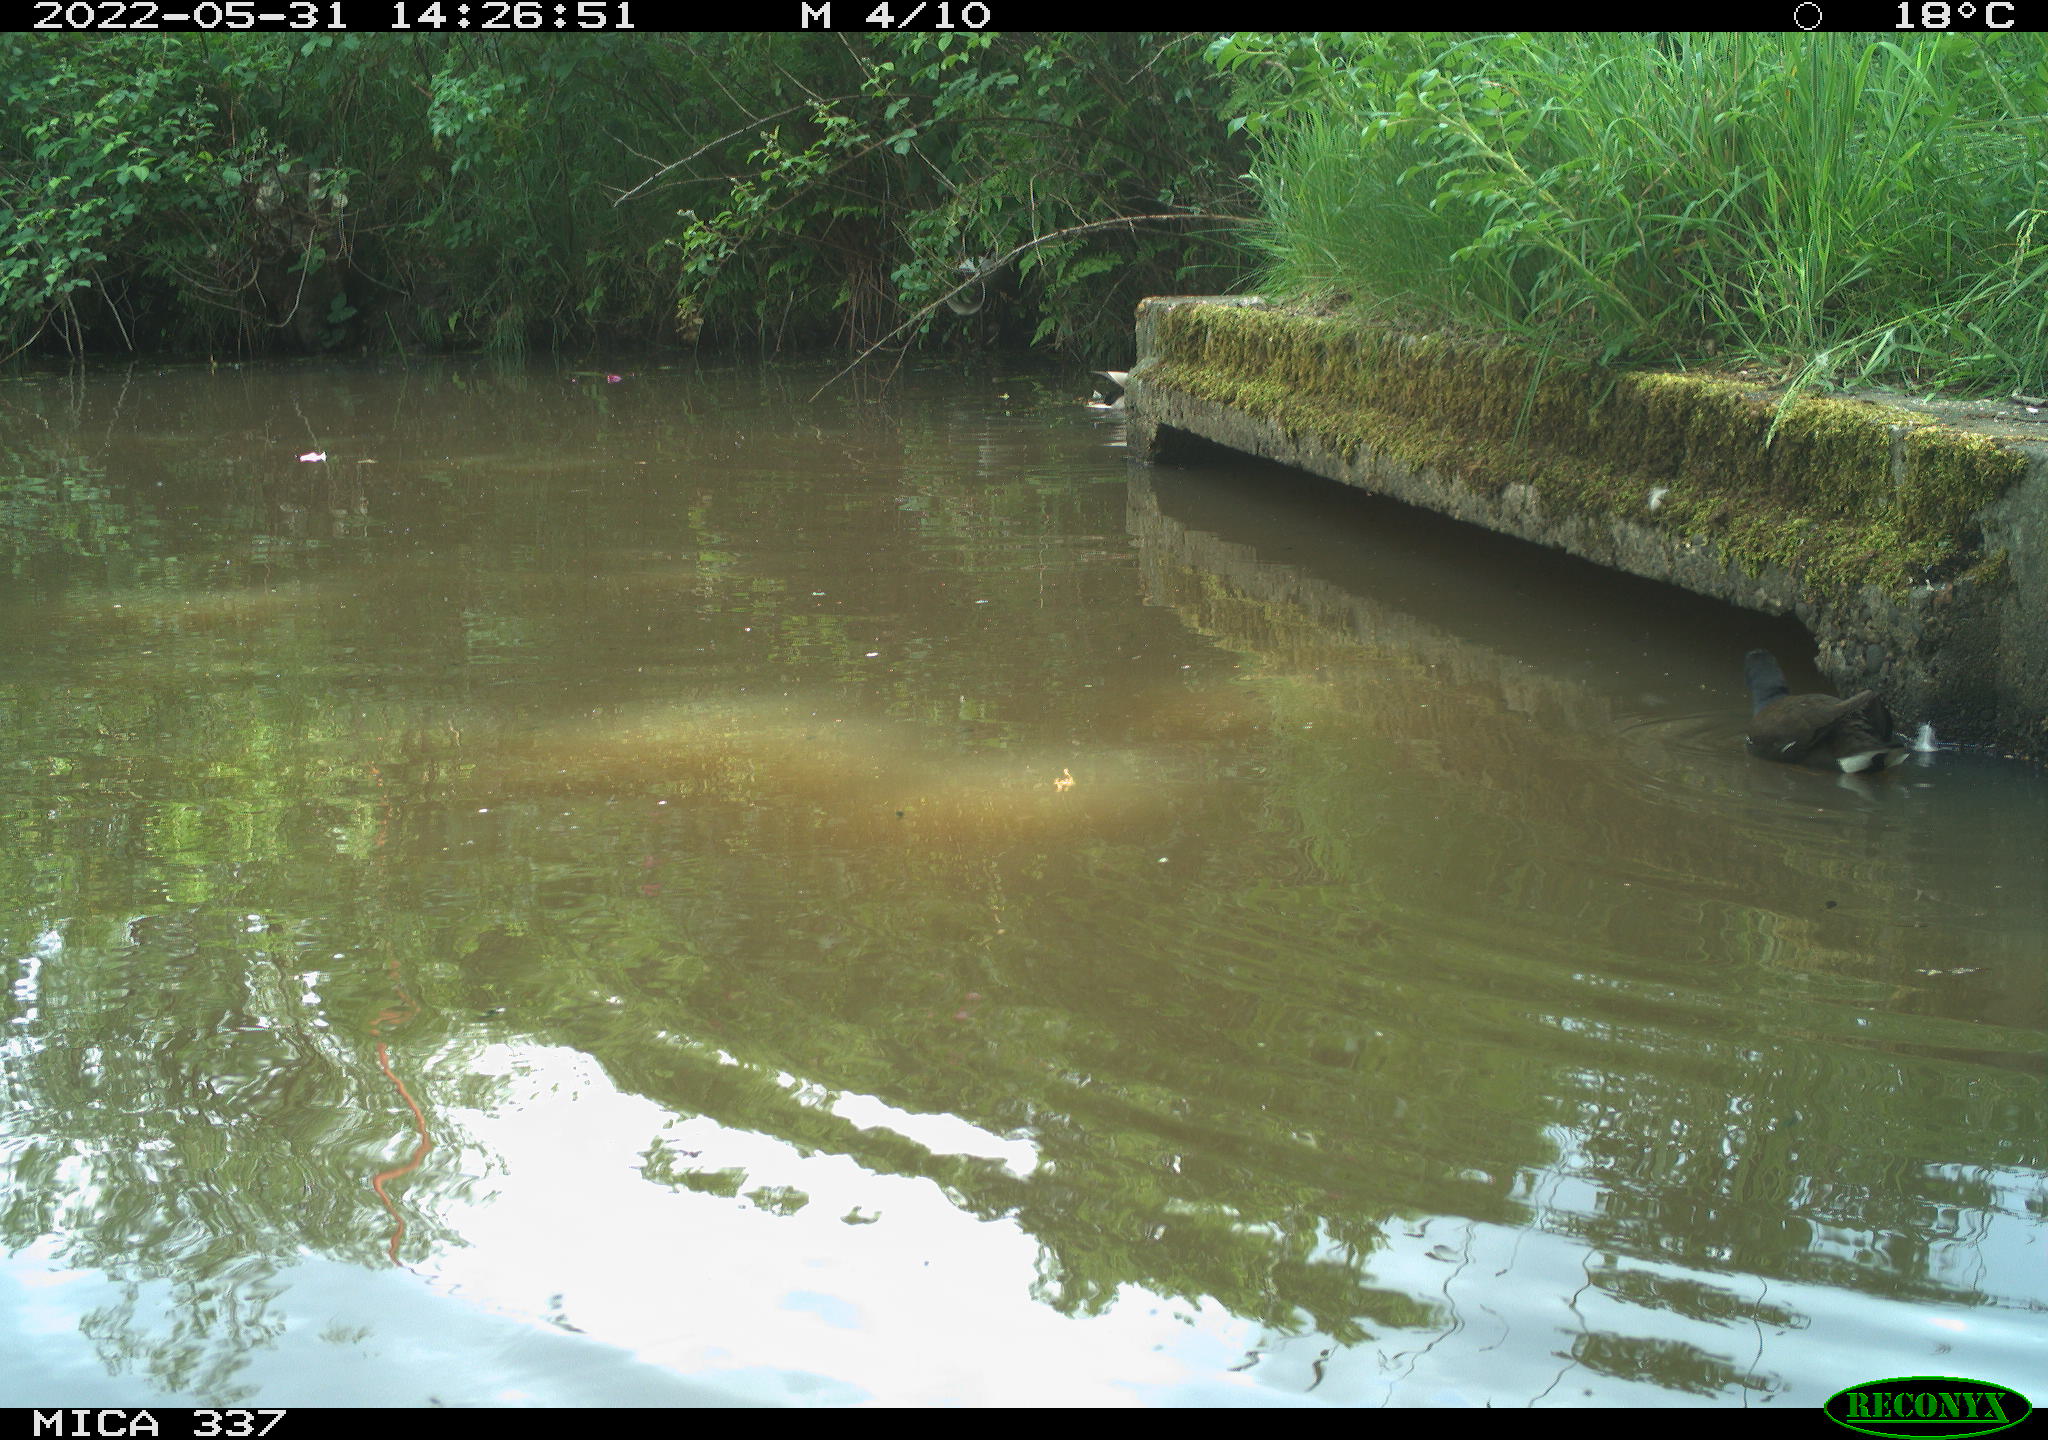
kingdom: Animalia
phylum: Chordata
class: Aves
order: Anseriformes
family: Anatidae
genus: Anas
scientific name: Anas platyrhynchos
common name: Mallard
